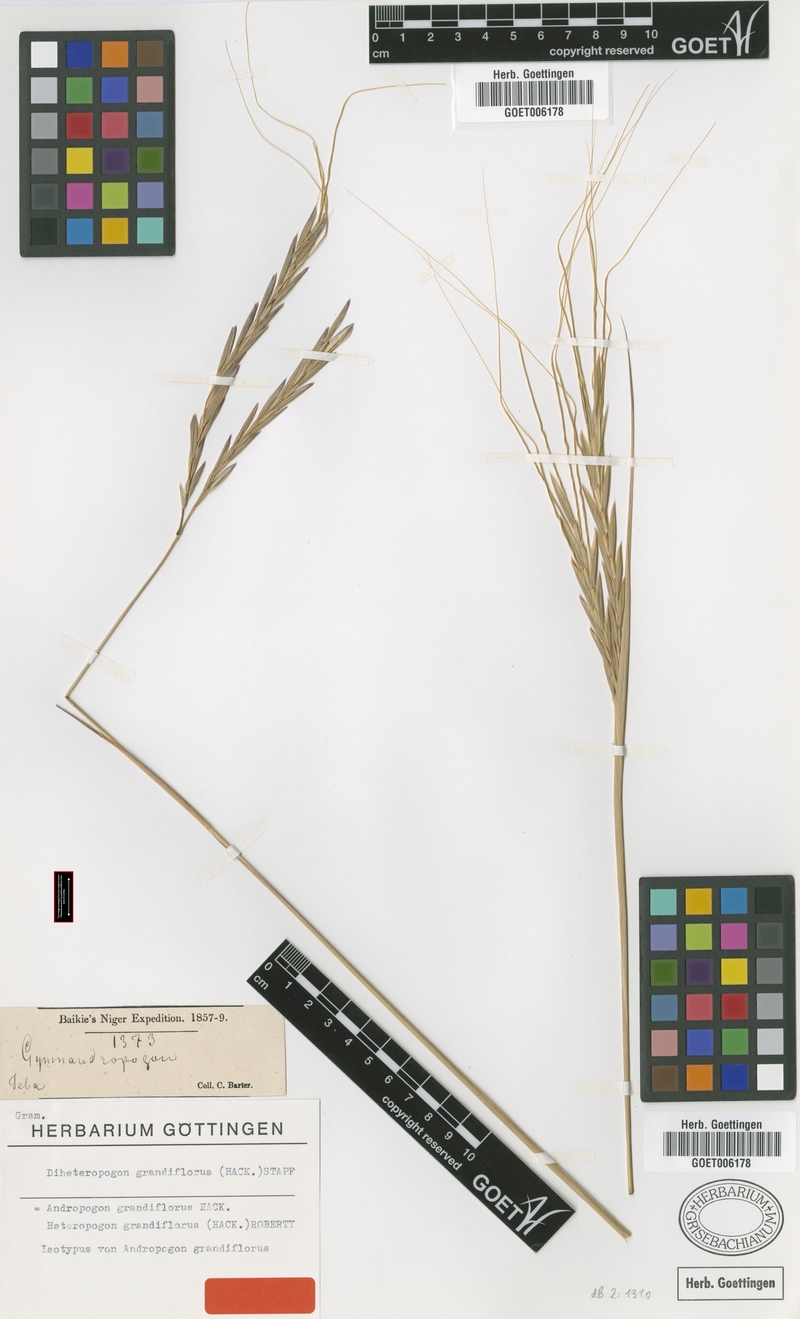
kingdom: Plantae
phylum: Tracheophyta
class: Liliopsida
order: Poales
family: Poaceae
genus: Diheteropogon
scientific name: Diheteropogon filifolius
